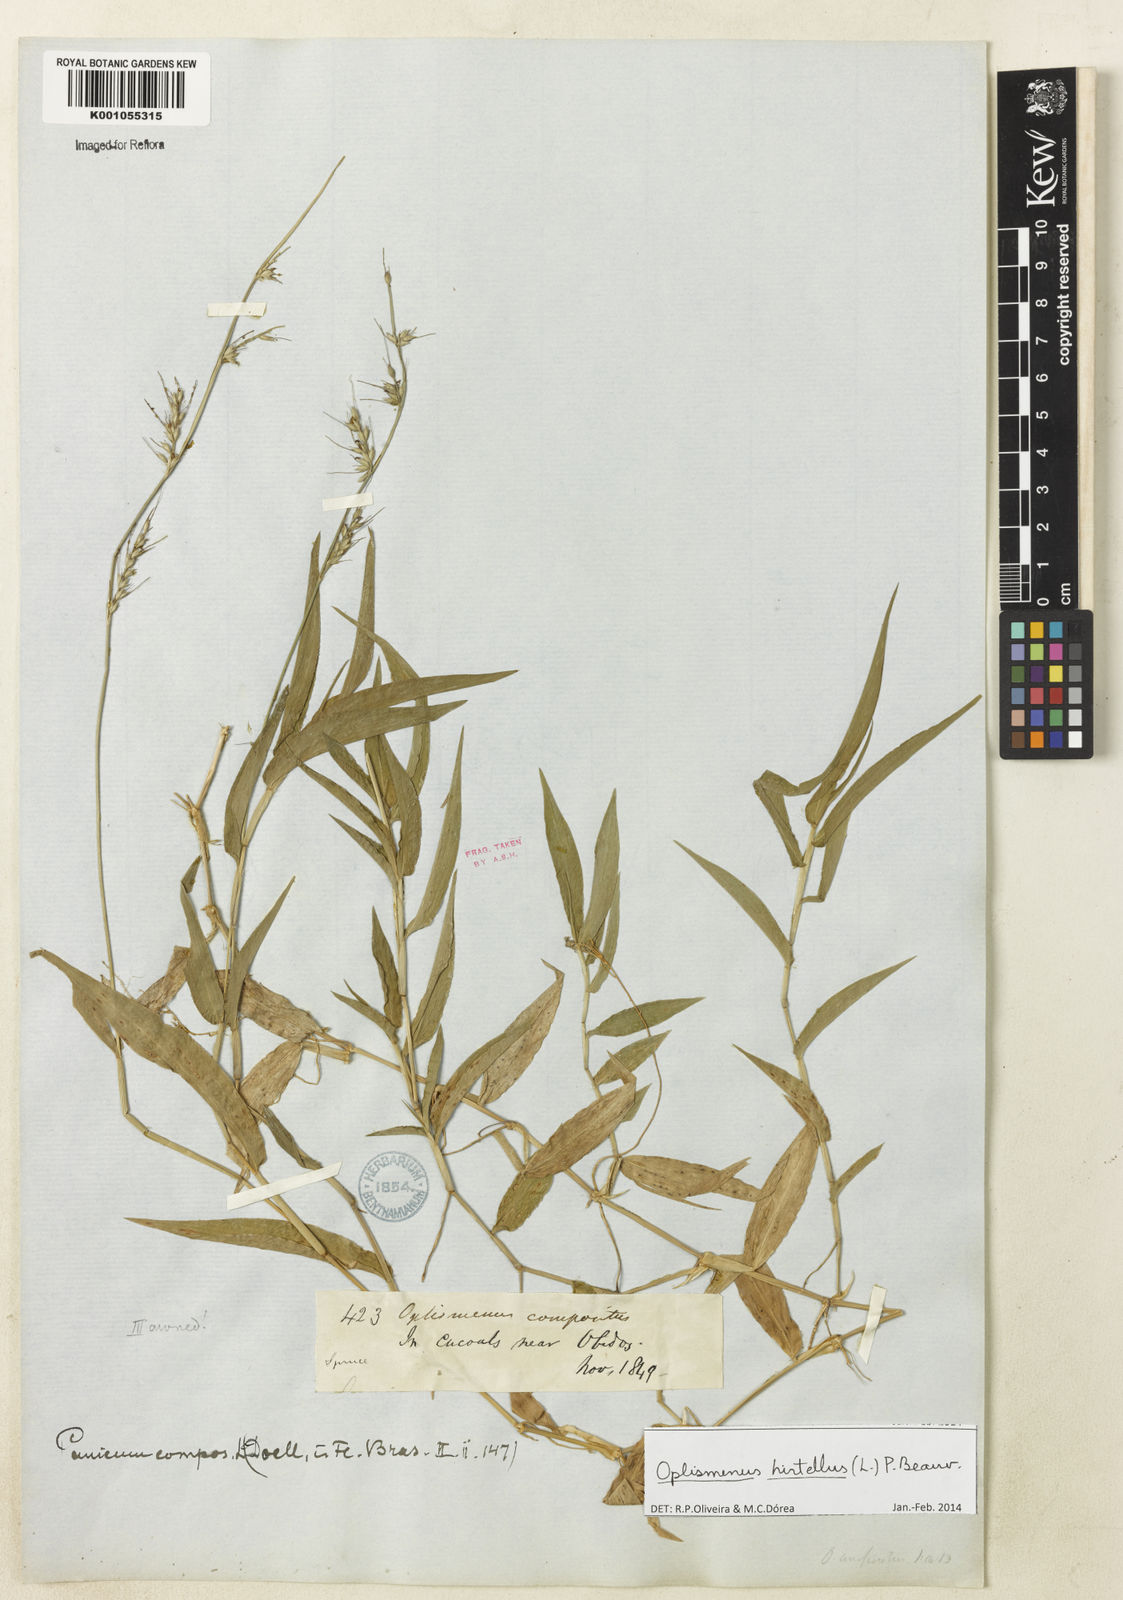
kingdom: Plantae
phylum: Tracheophyta
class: Liliopsida
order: Poales
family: Poaceae
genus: Oplismenus
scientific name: Oplismenus hirtellus
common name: Basketgrass
